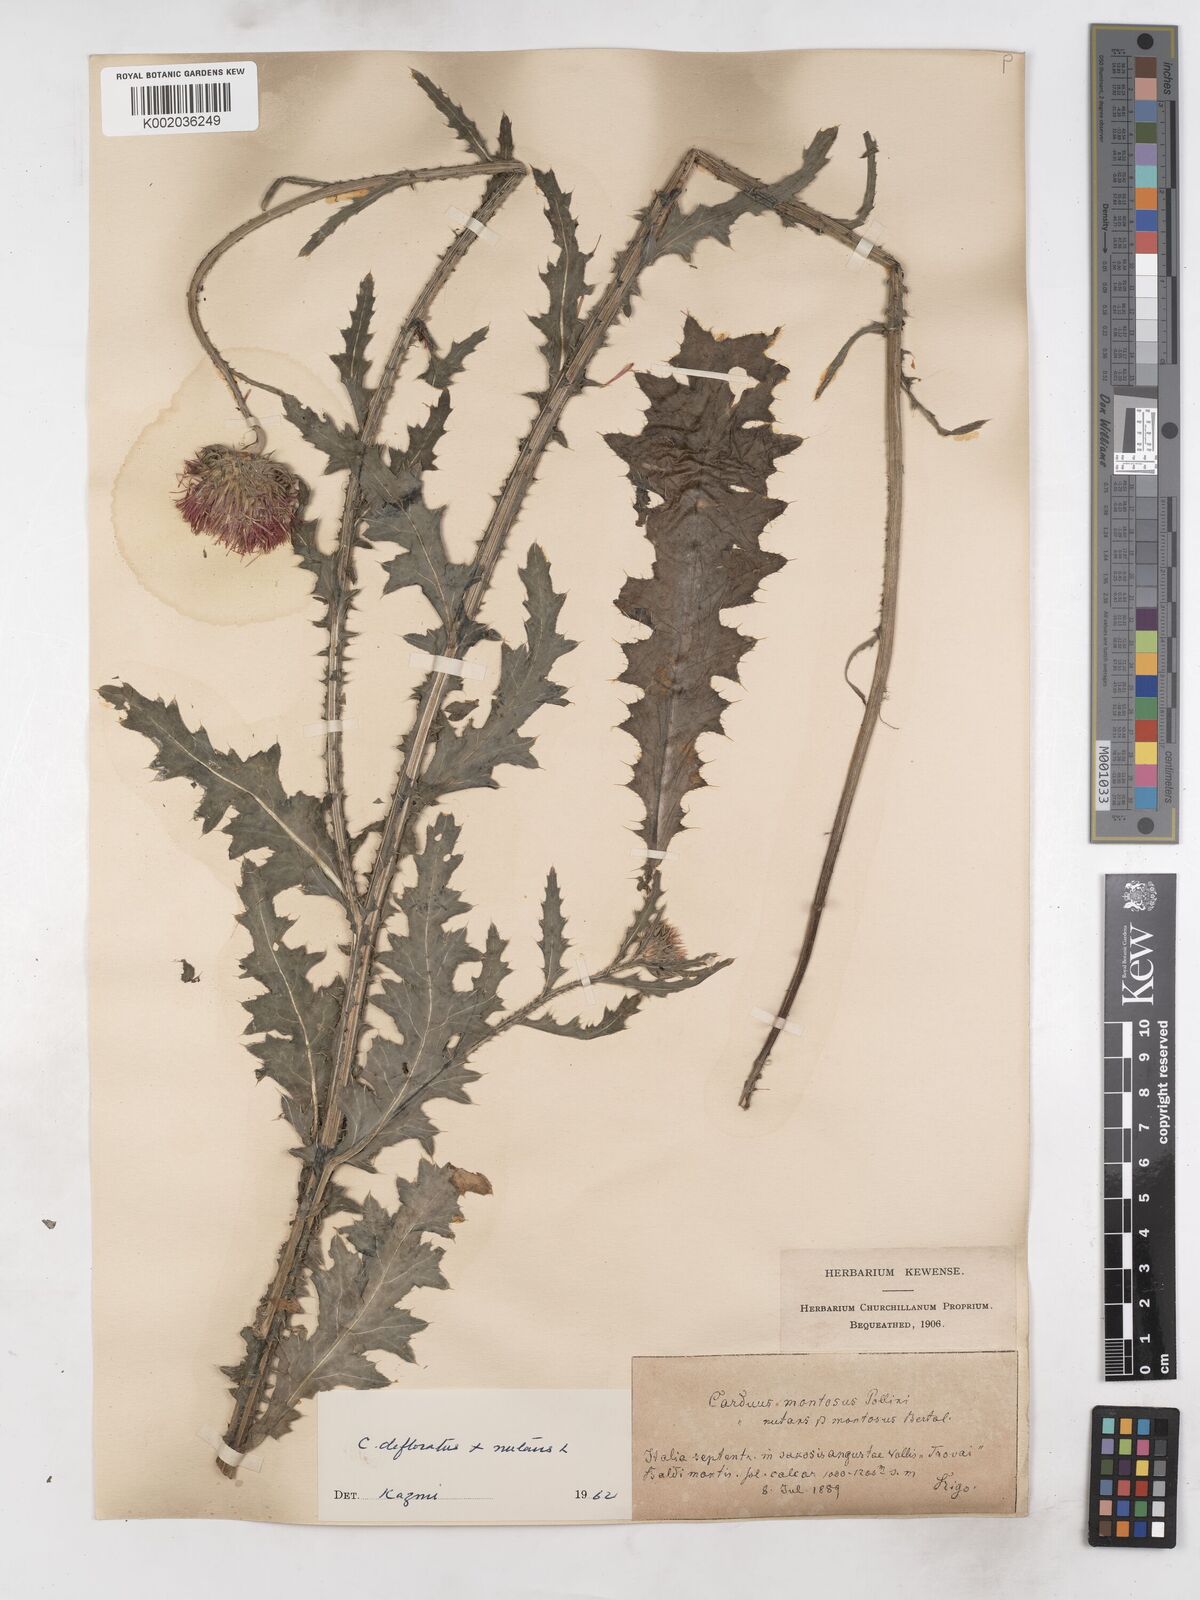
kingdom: Plantae
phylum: Tracheophyta
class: Magnoliopsida
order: Asterales
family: Asteraceae
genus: Carduus
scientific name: Carduus defloratus
